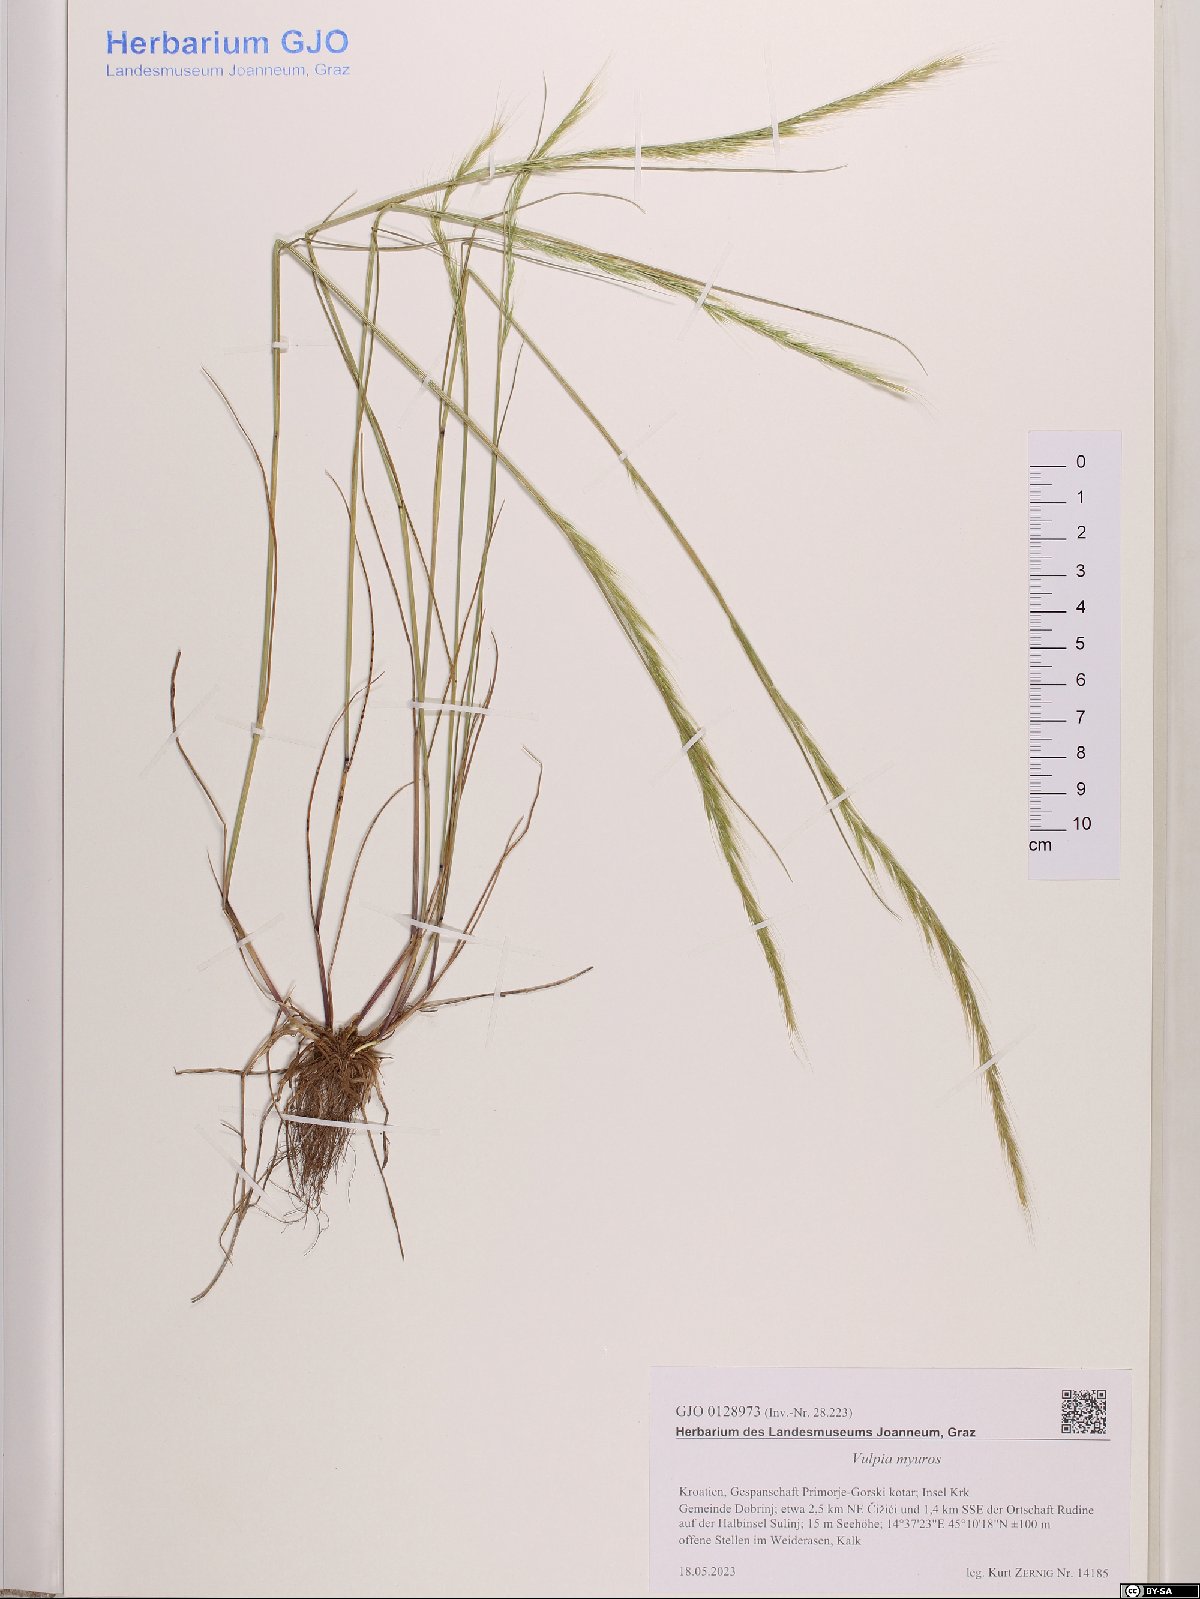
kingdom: Plantae
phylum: Tracheophyta
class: Liliopsida
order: Poales
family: Poaceae
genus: Festuca
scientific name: Festuca myuros
